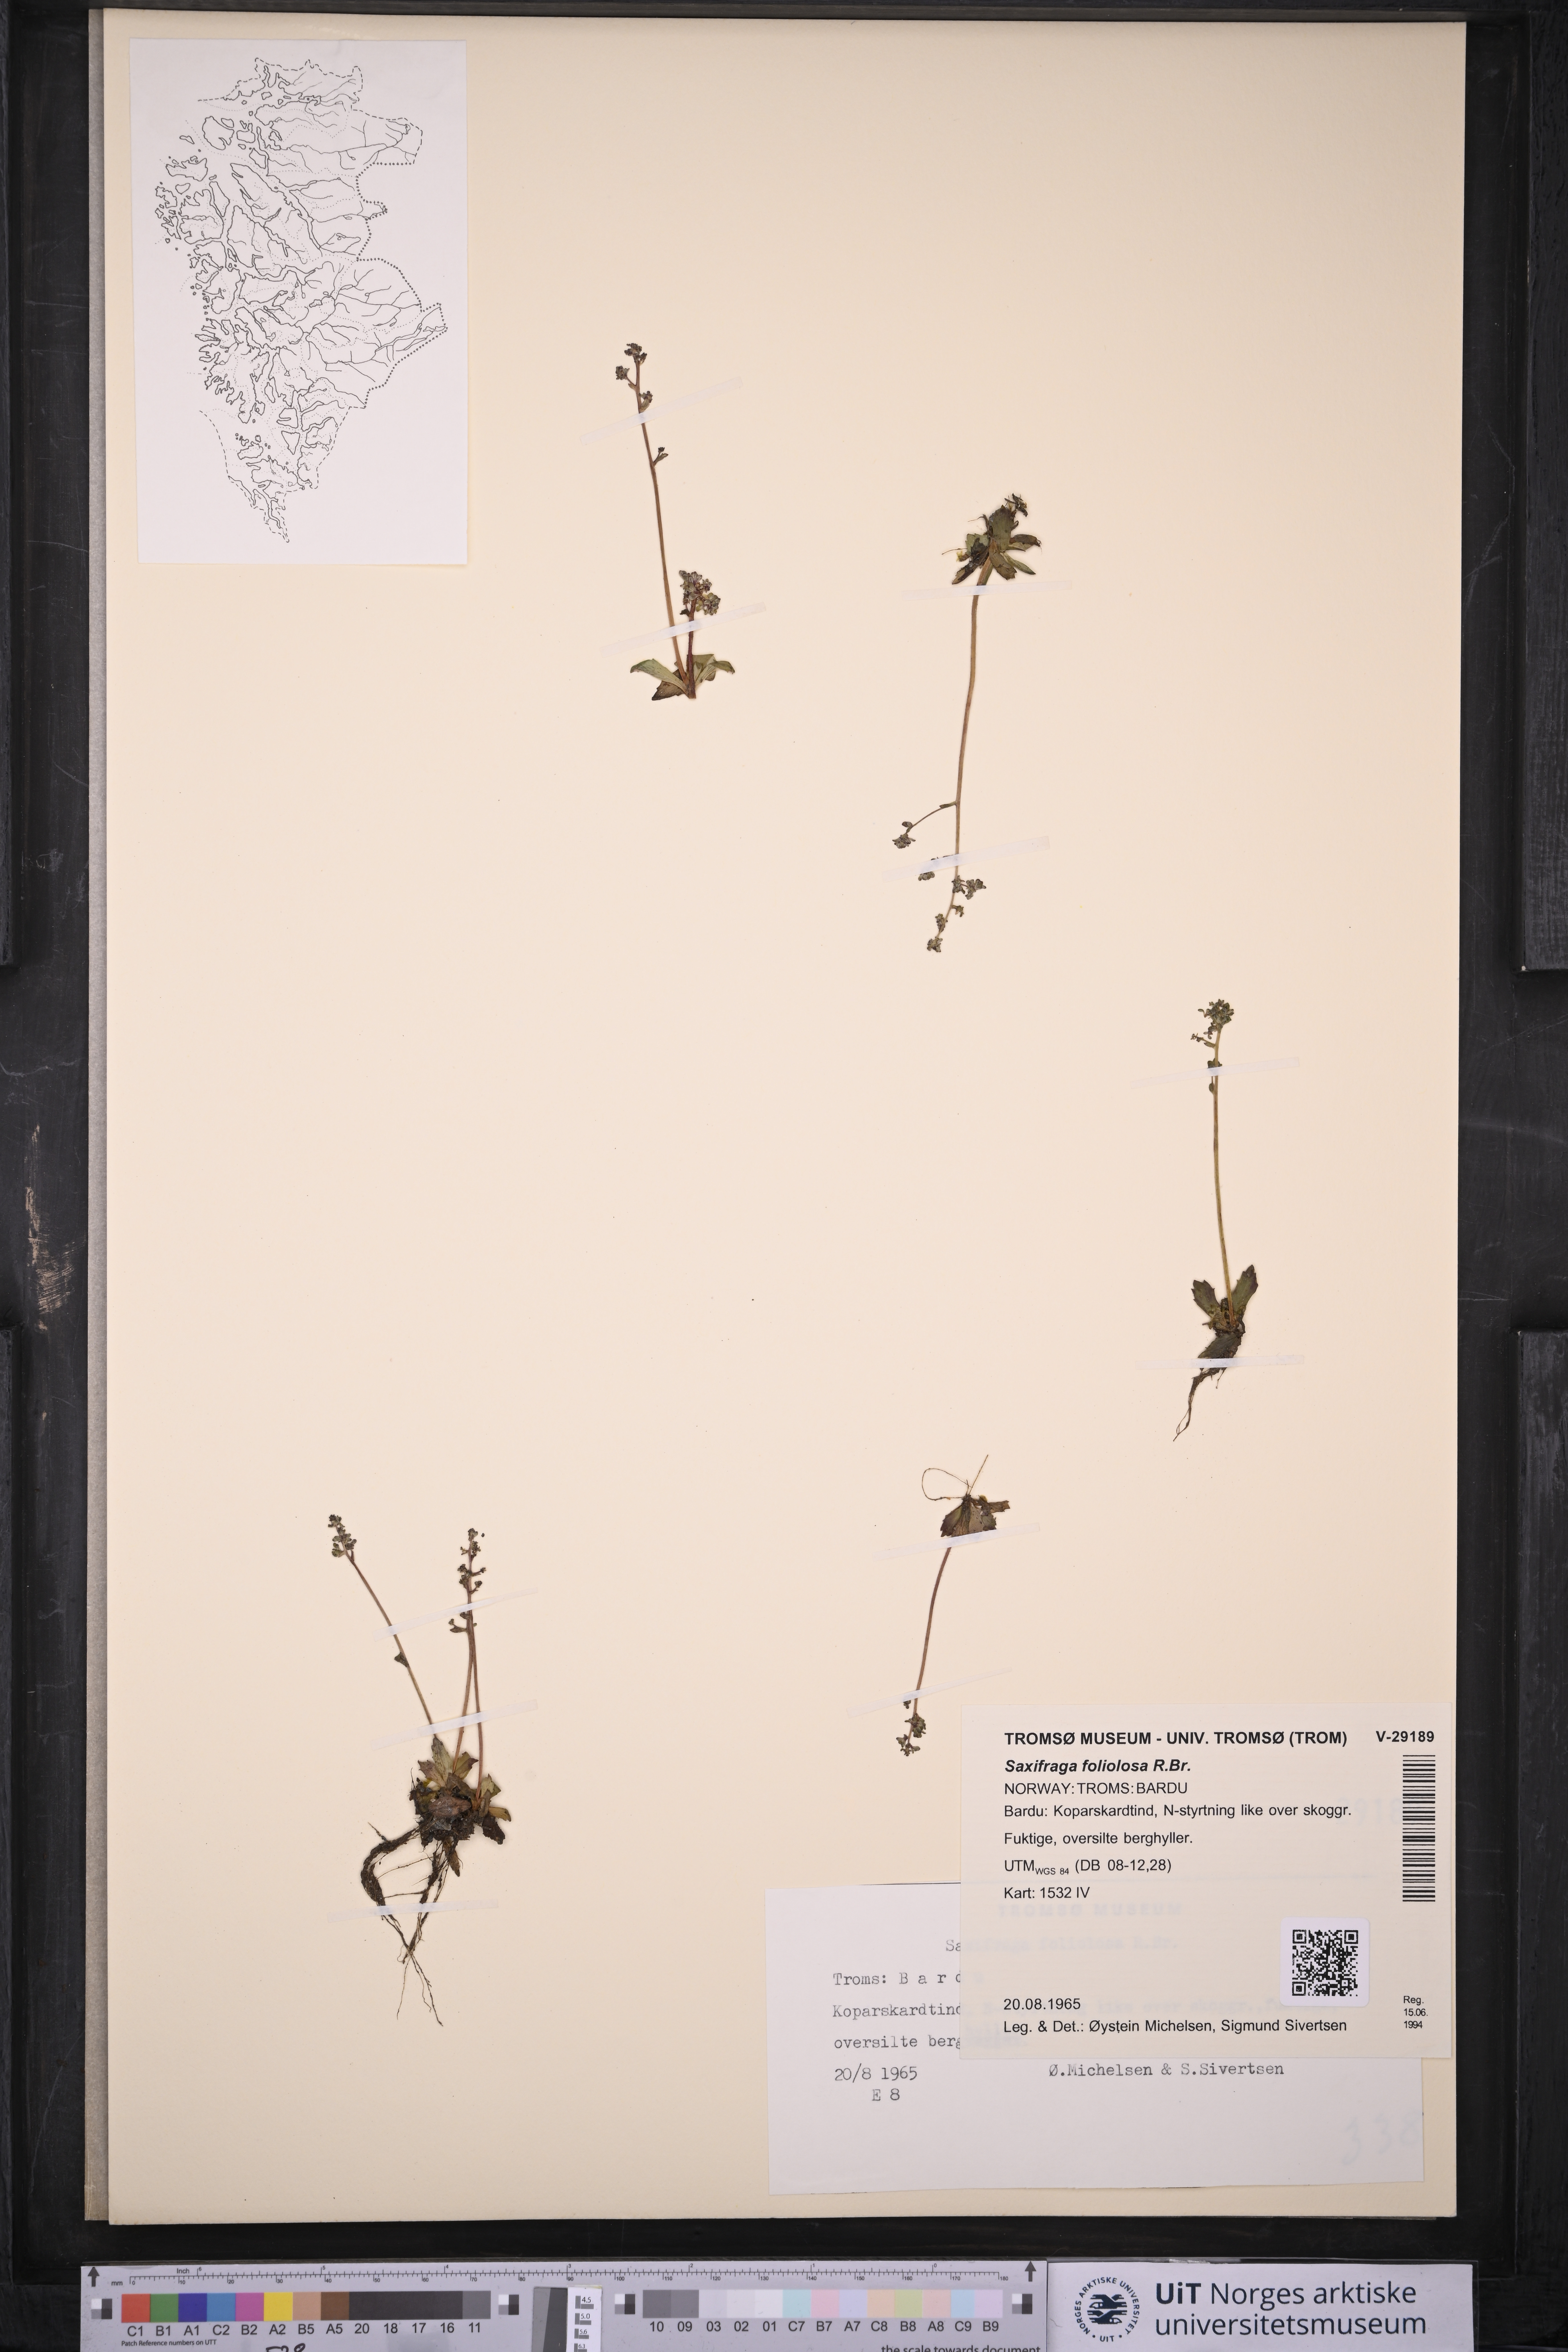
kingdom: Plantae
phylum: Tracheophyta
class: Magnoliopsida
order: Saxifragales
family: Saxifragaceae
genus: Micranthes
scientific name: Micranthes foliolosa
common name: Leafystem saxifrage
